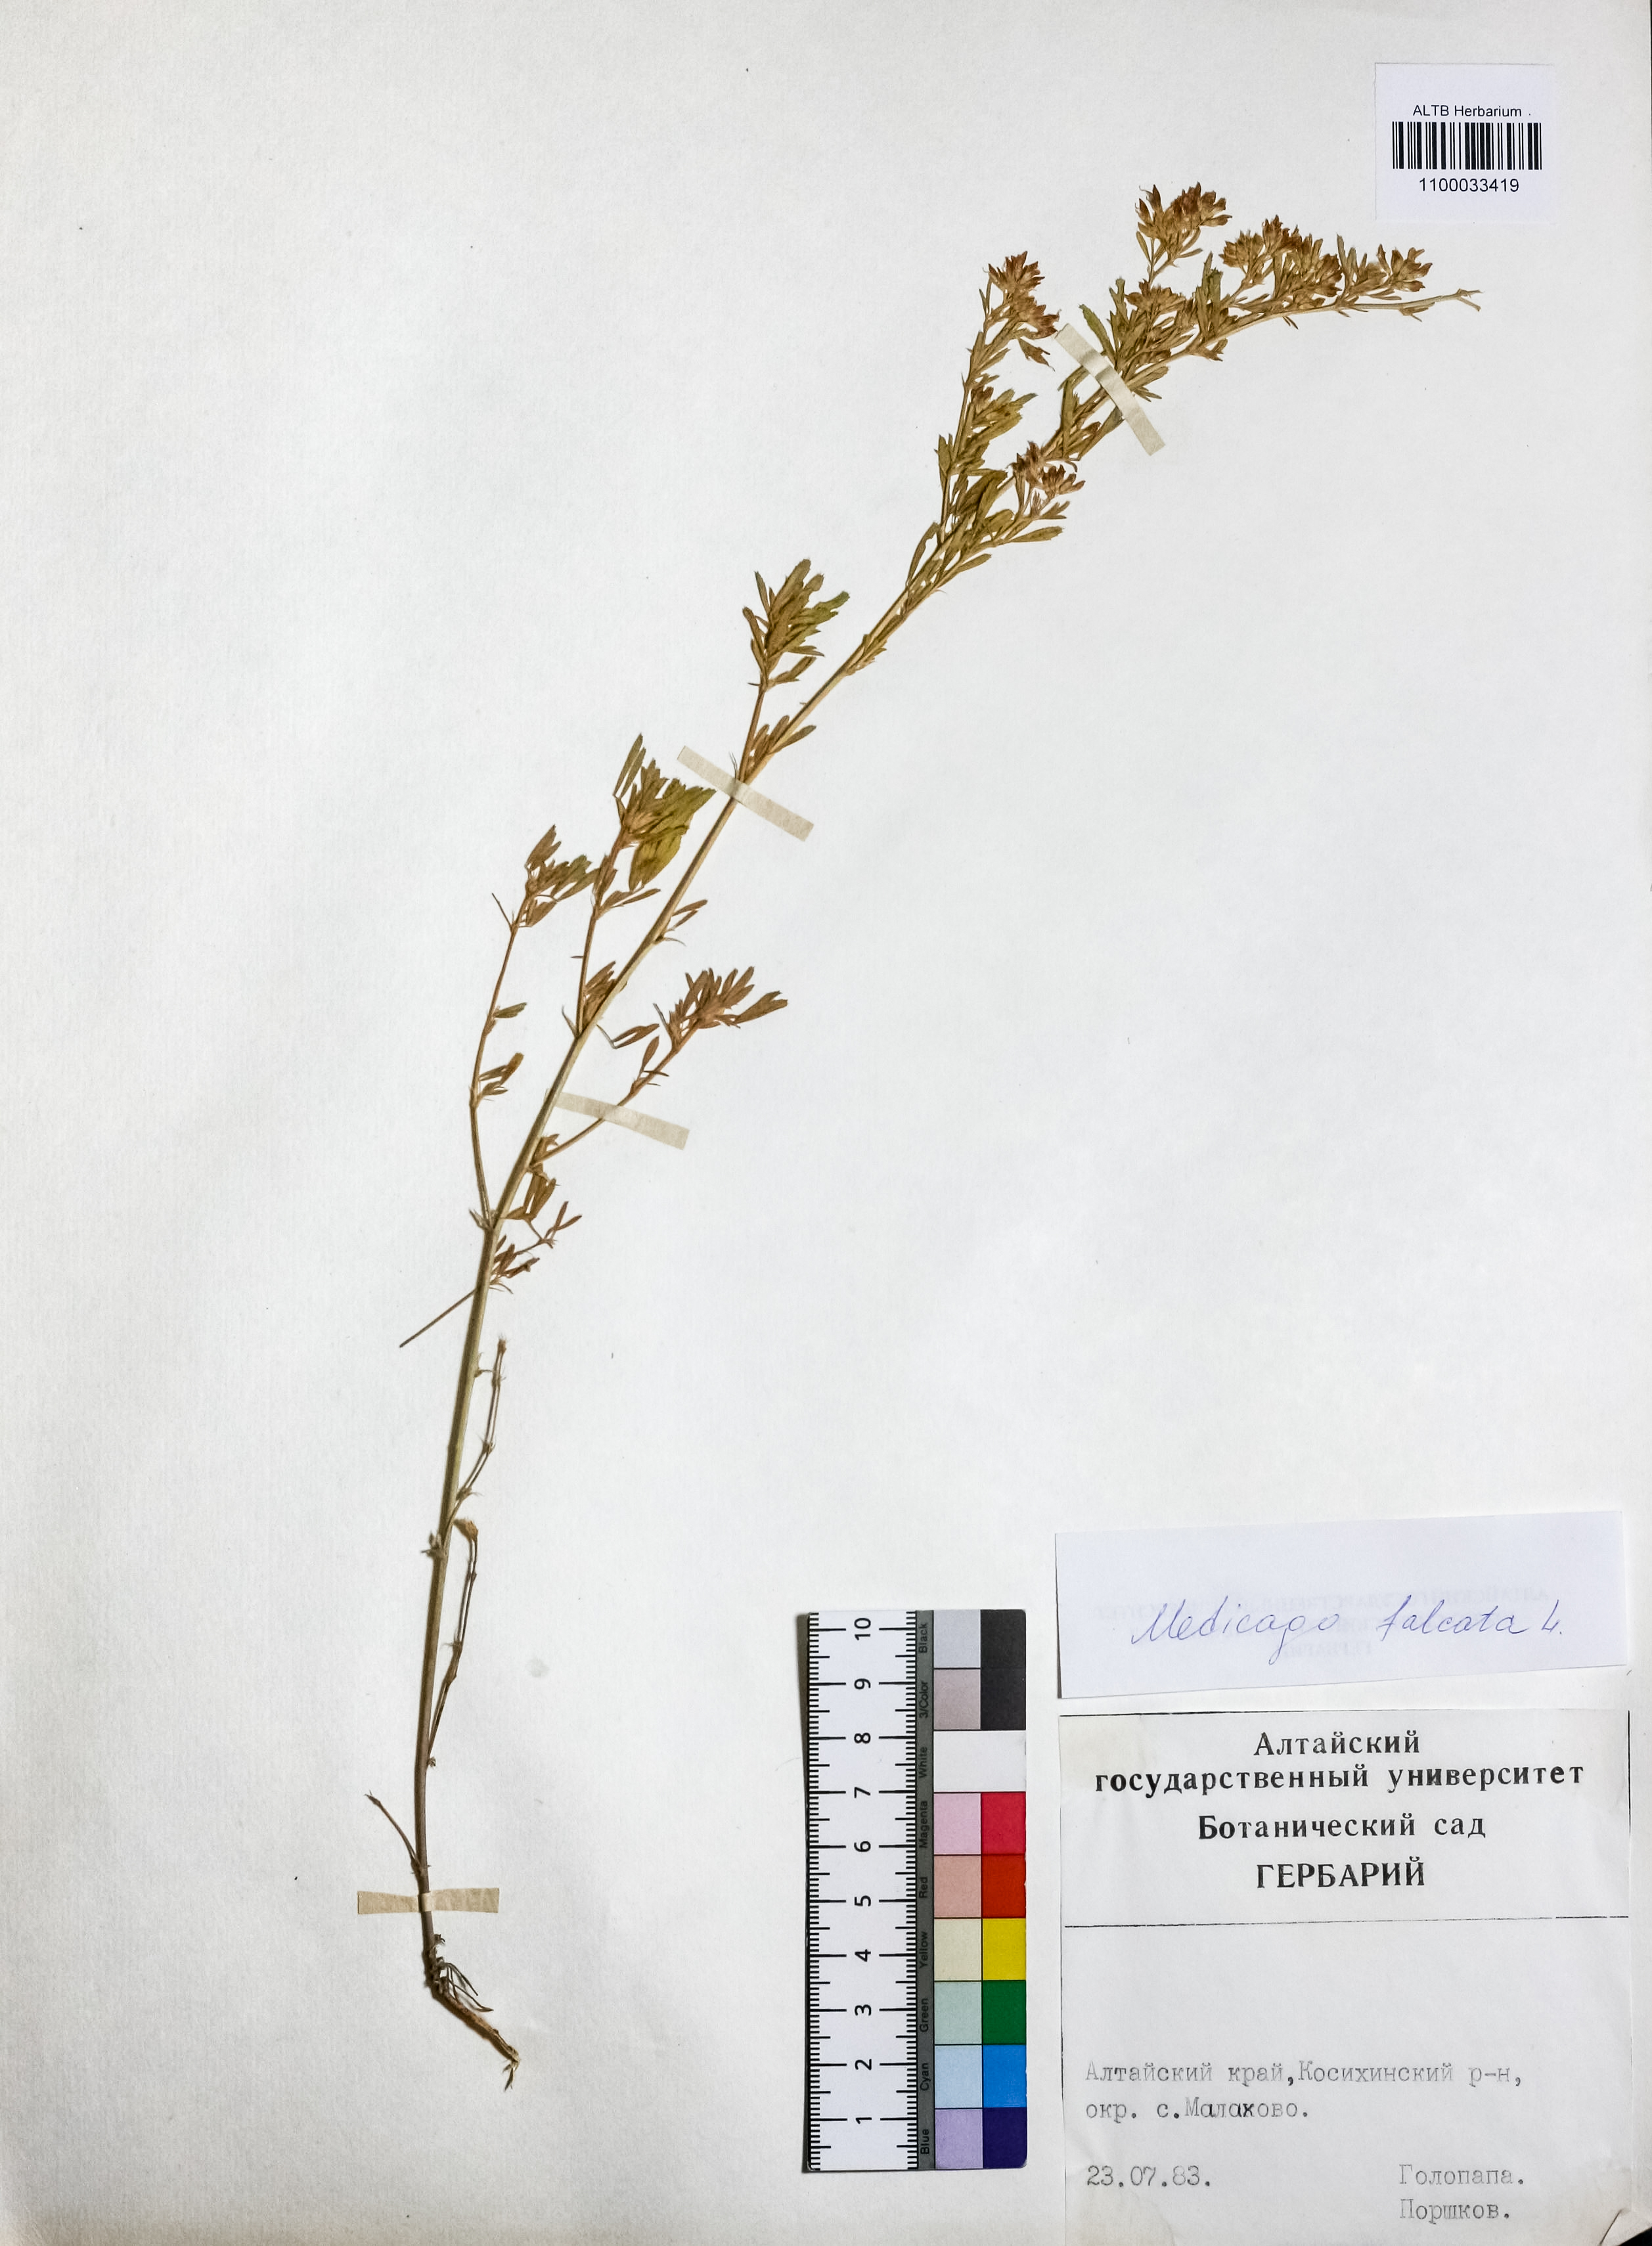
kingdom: Plantae
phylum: Tracheophyta
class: Magnoliopsida
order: Fabales
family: Fabaceae
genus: Medicago
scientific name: Medicago falcata
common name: Sickle medick
